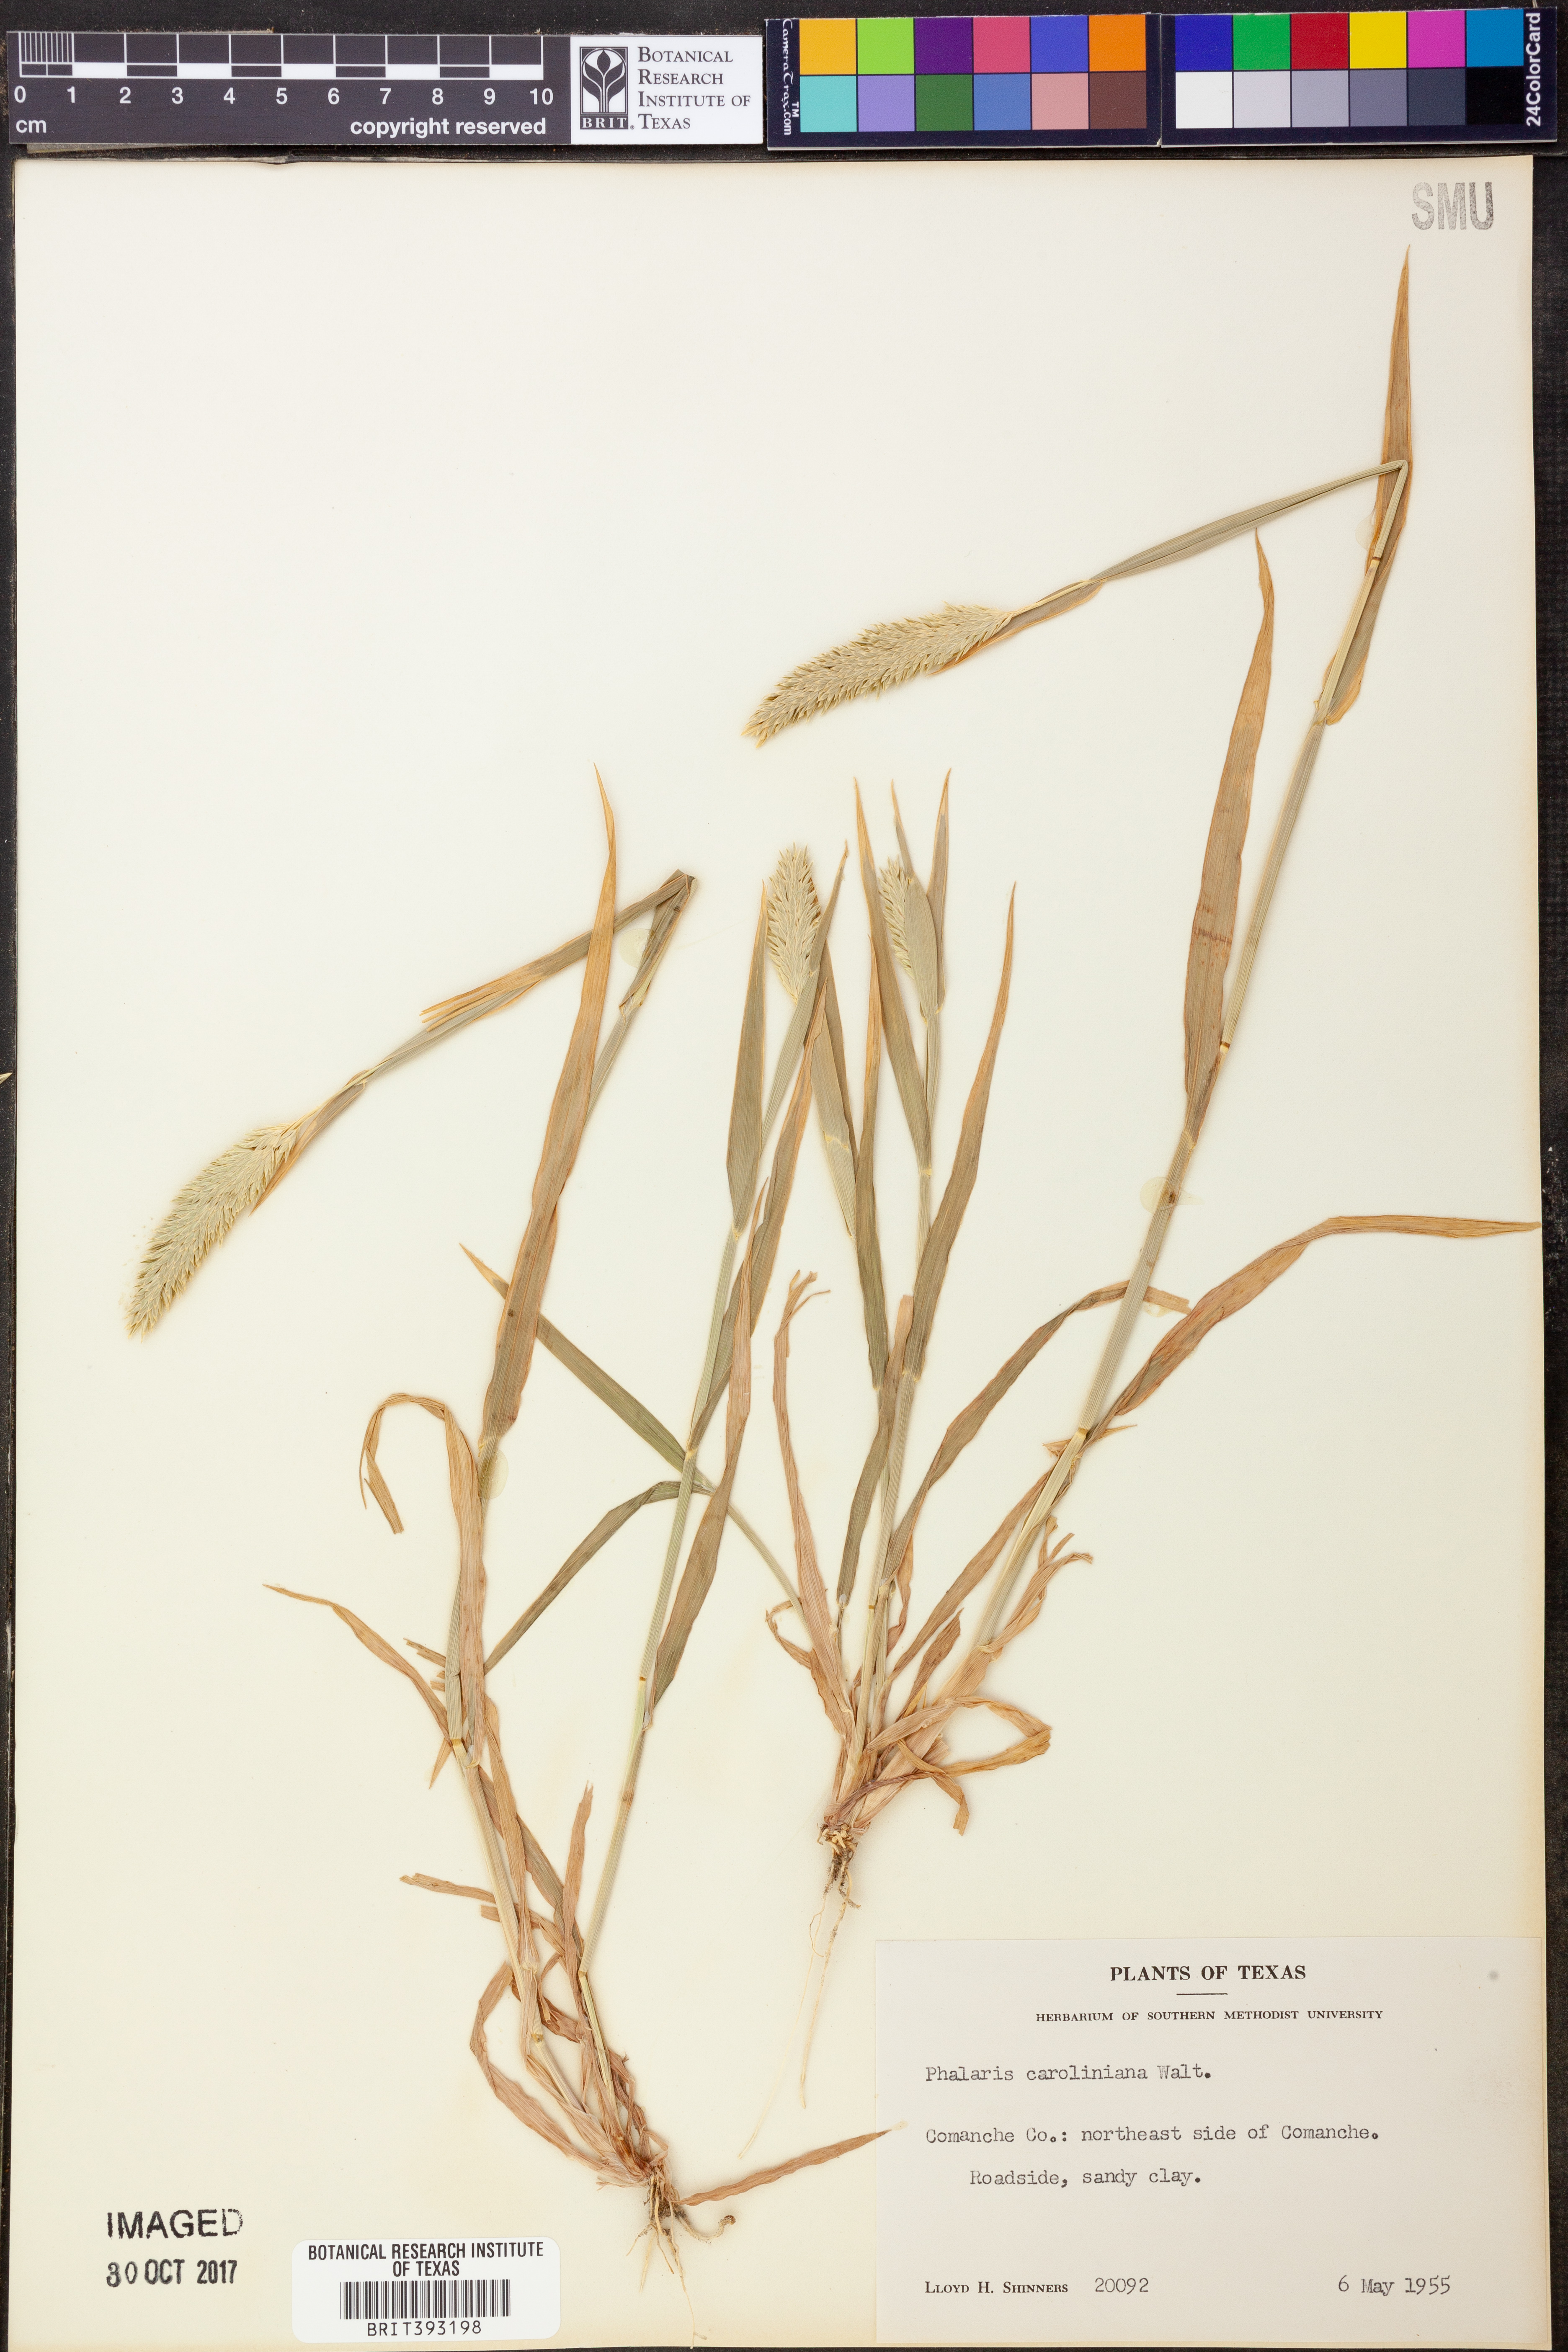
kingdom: Plantae
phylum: Tracheophyta
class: Liliopsida
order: Poales
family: Poaceae
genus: Phalaris
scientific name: Phalaris caroliniana
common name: May grass
